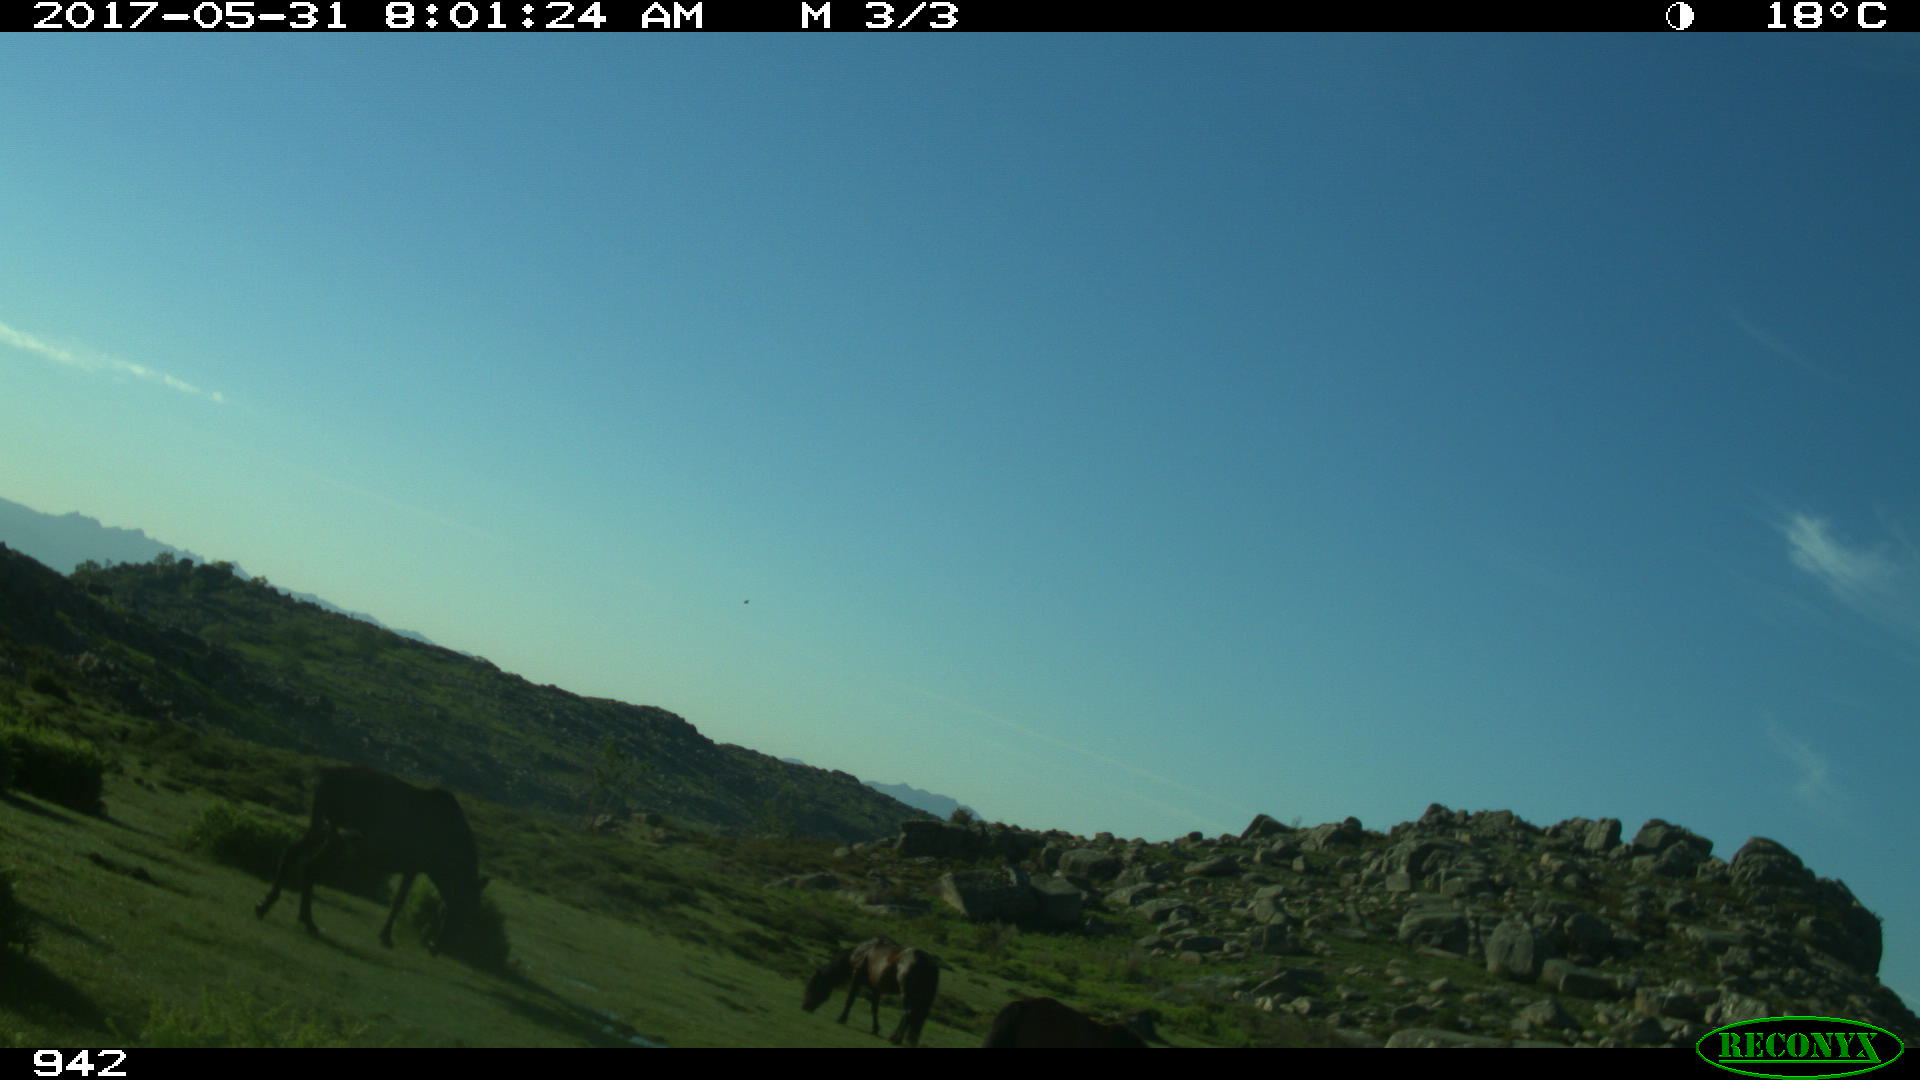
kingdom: Animalia
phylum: Chordata
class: Mammalia
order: Perissodactyla
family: Equidae
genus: Equus
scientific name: Equus caballus
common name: Horse
